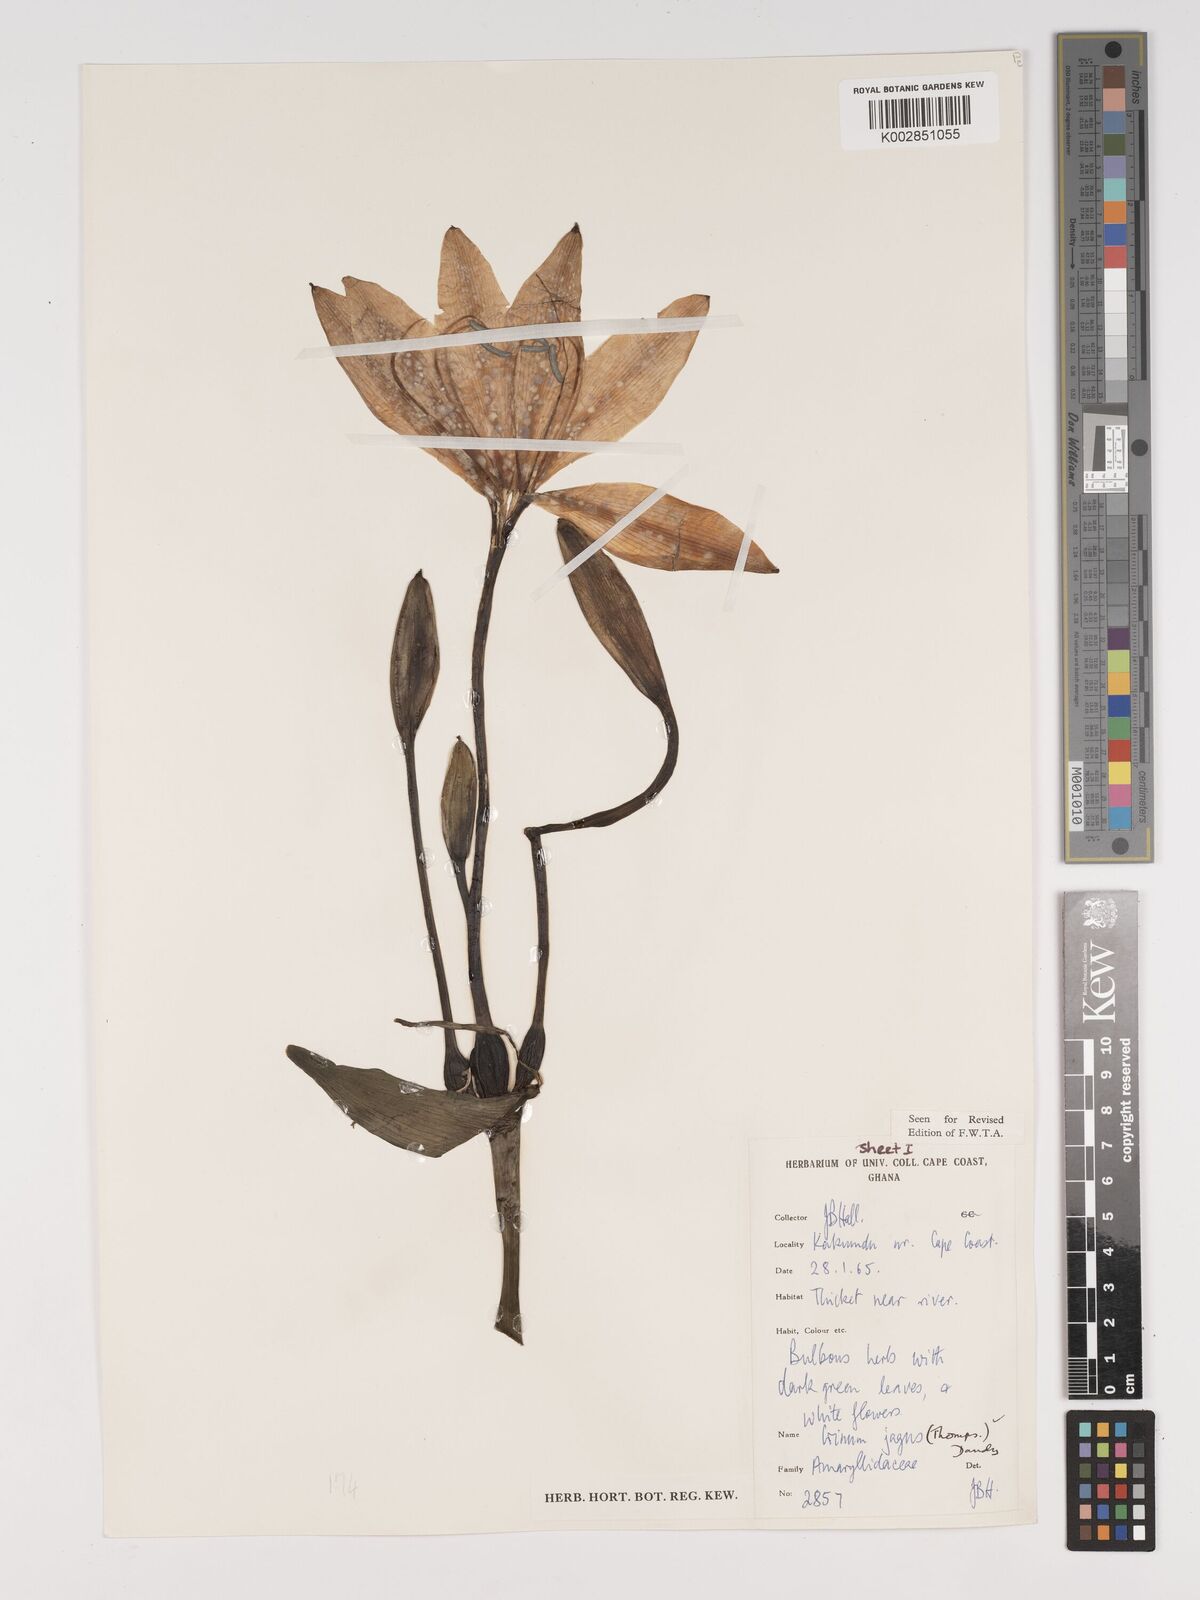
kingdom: Plantae
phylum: Tracheophyta
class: Liliopsida
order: Asparagales
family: Amaryllidaceae
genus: Crinum
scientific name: Crinum jagus
